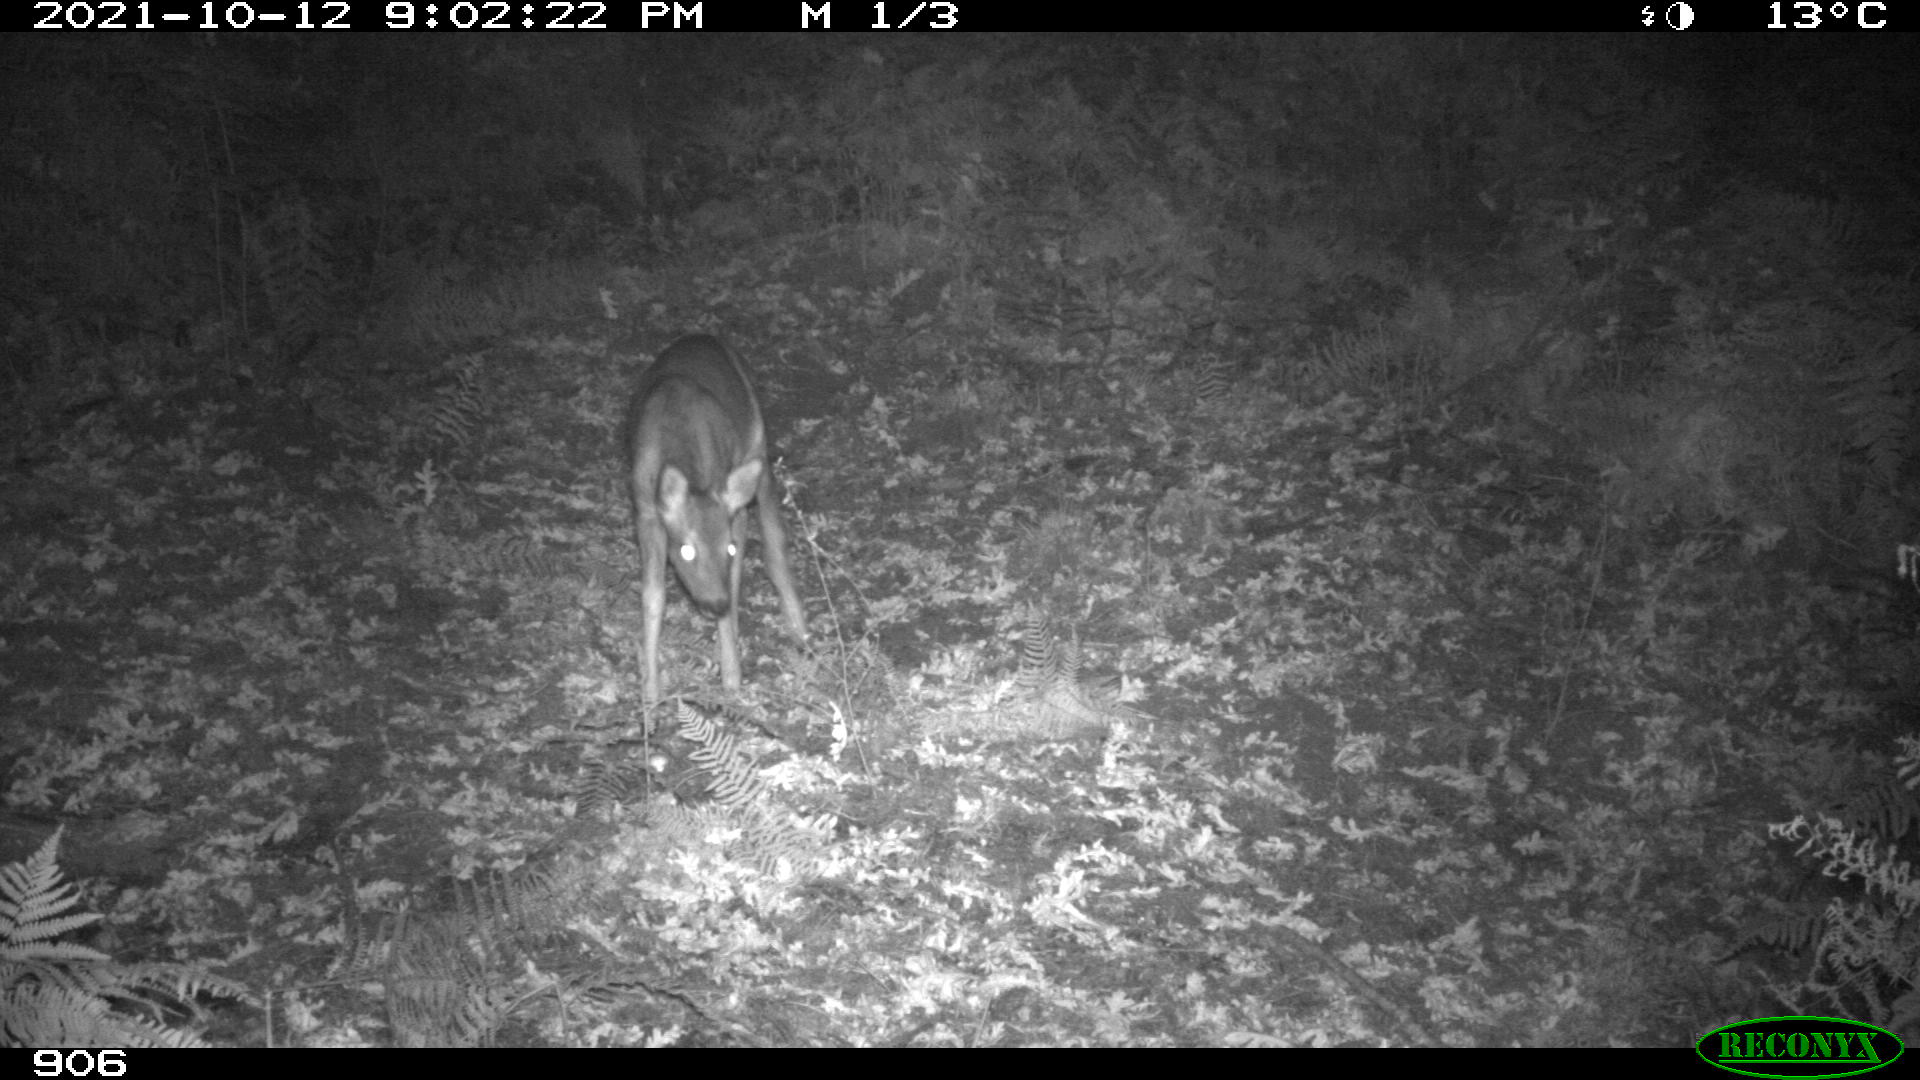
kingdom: Animalia
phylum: Chordata
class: Mammalia
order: Artiodactyla
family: Cervidae
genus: Capreolus
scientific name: Capreolus capreolus
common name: Western roe deer
